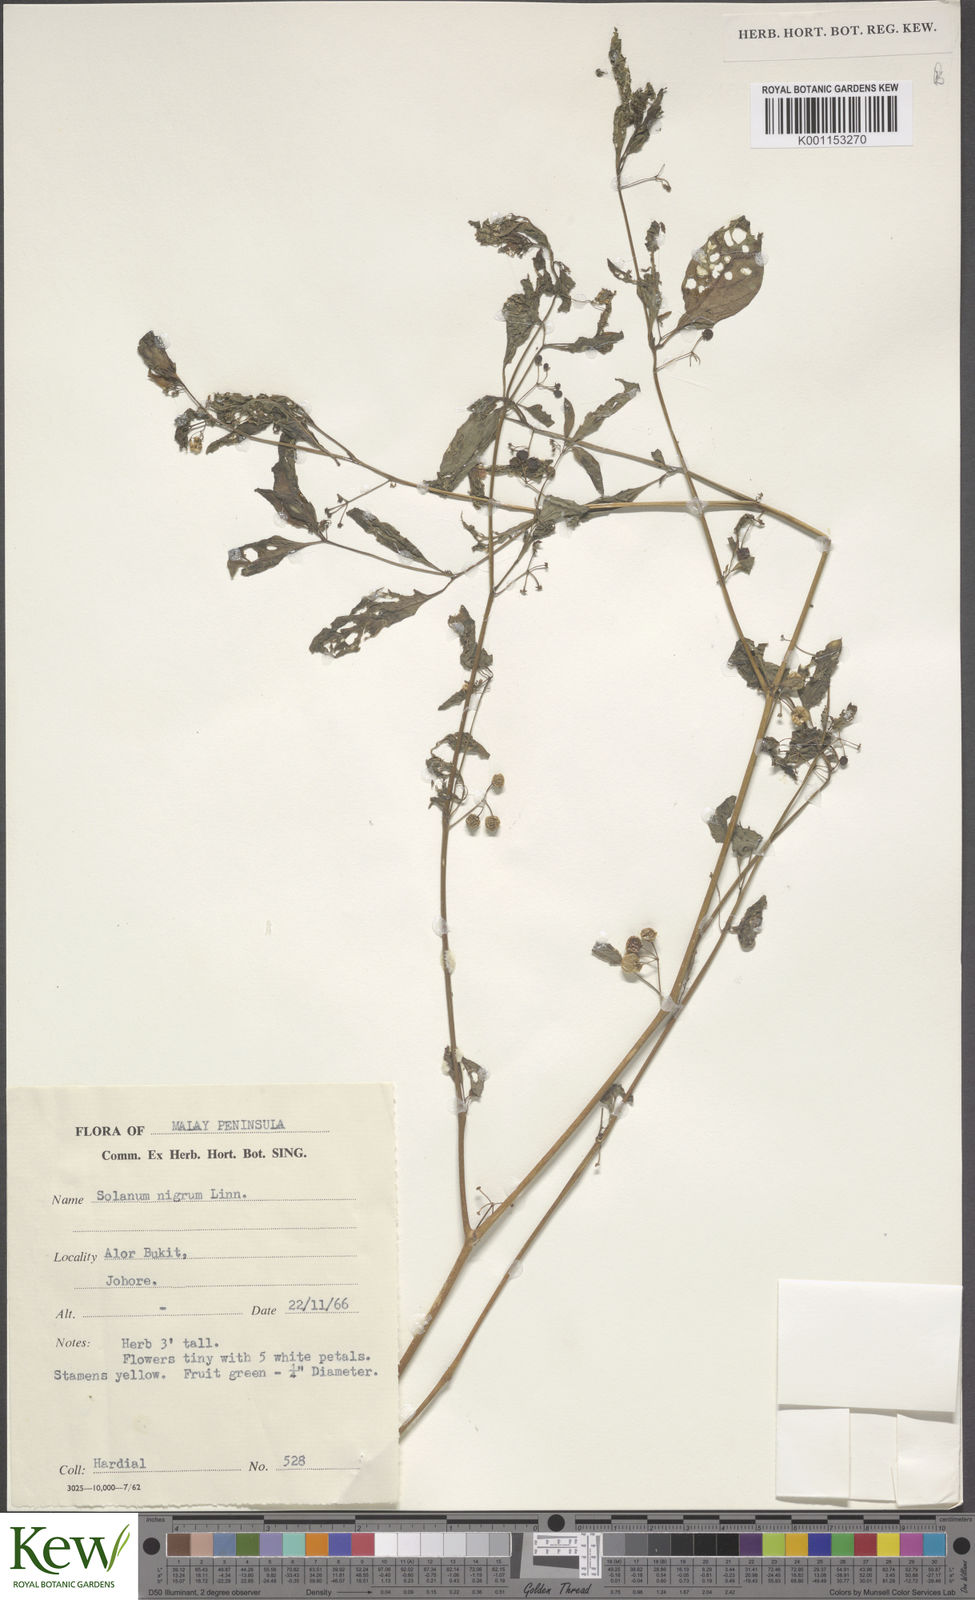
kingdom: Plantae
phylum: Tracheophyta
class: Magnoliopsida
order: Solanales
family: Solanaceae
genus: Solanum
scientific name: Solanum americanum
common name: American black nightshade
